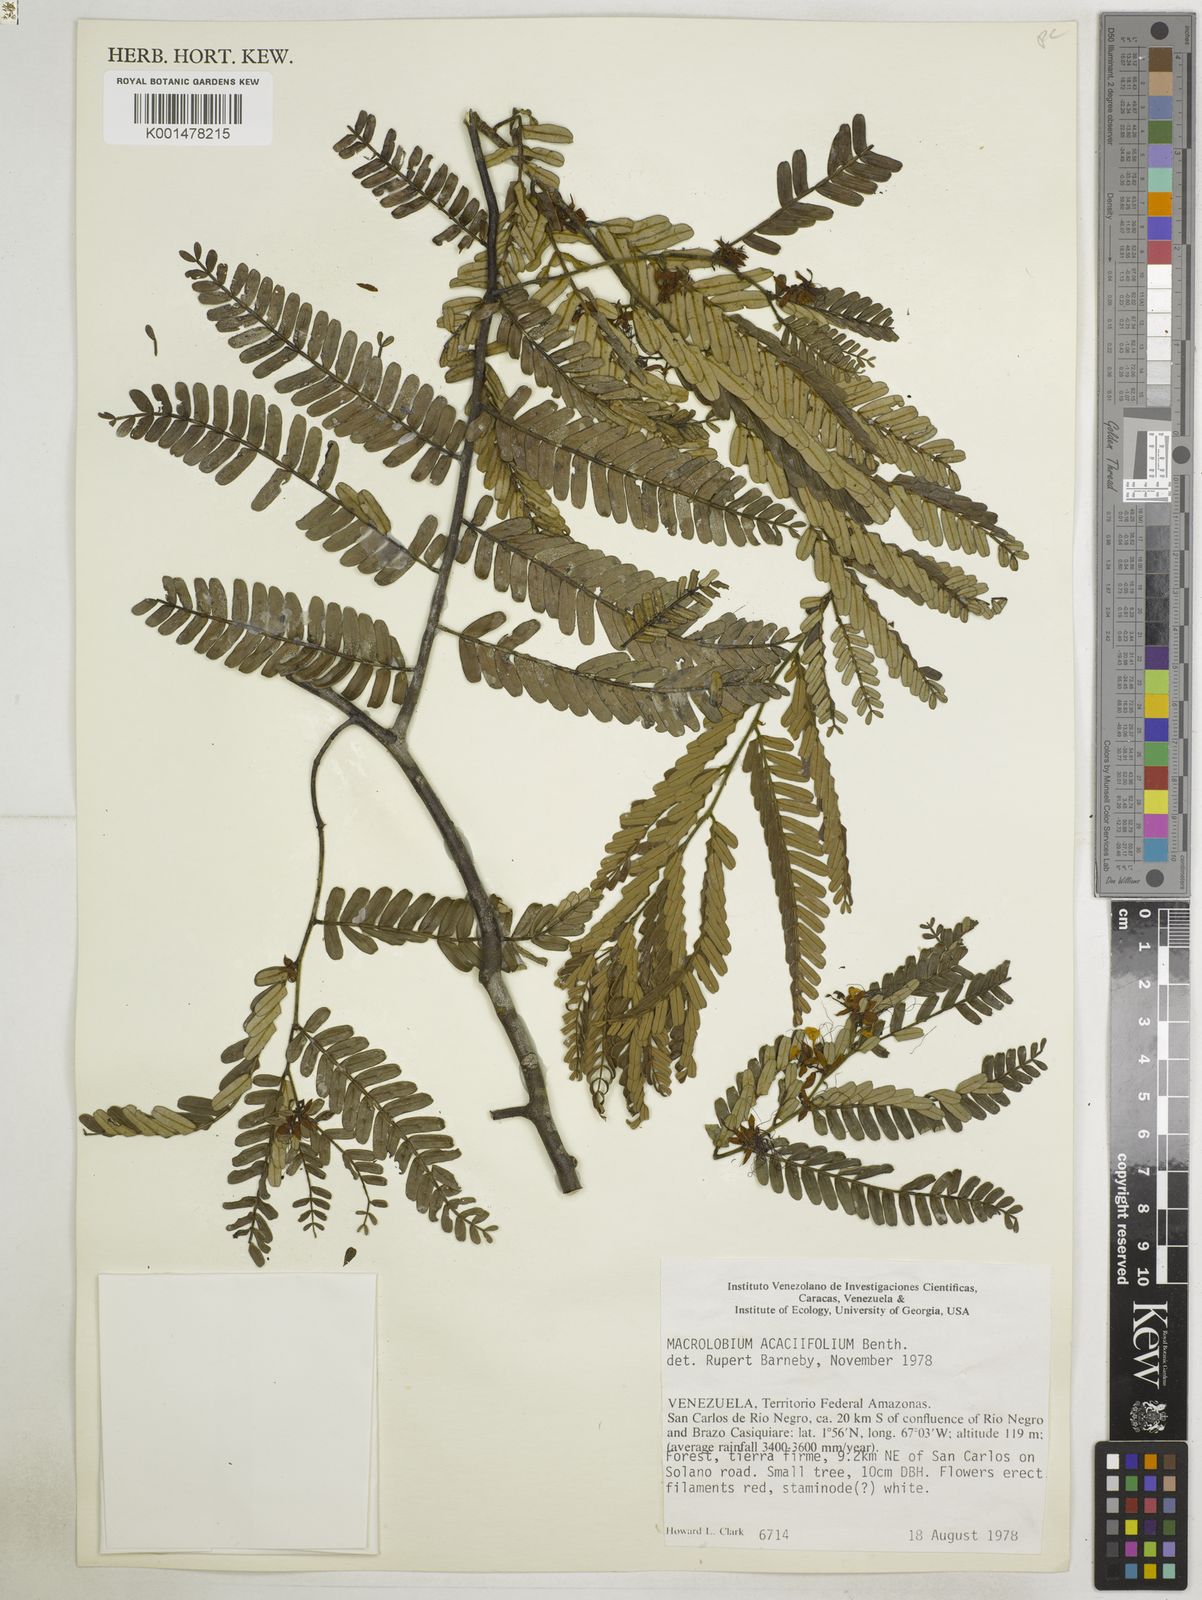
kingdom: Plantae
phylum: Tracheophyta
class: Magnoliopsida
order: Fabales
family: Fabaceae
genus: Macrolobium
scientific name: Macrolobium
